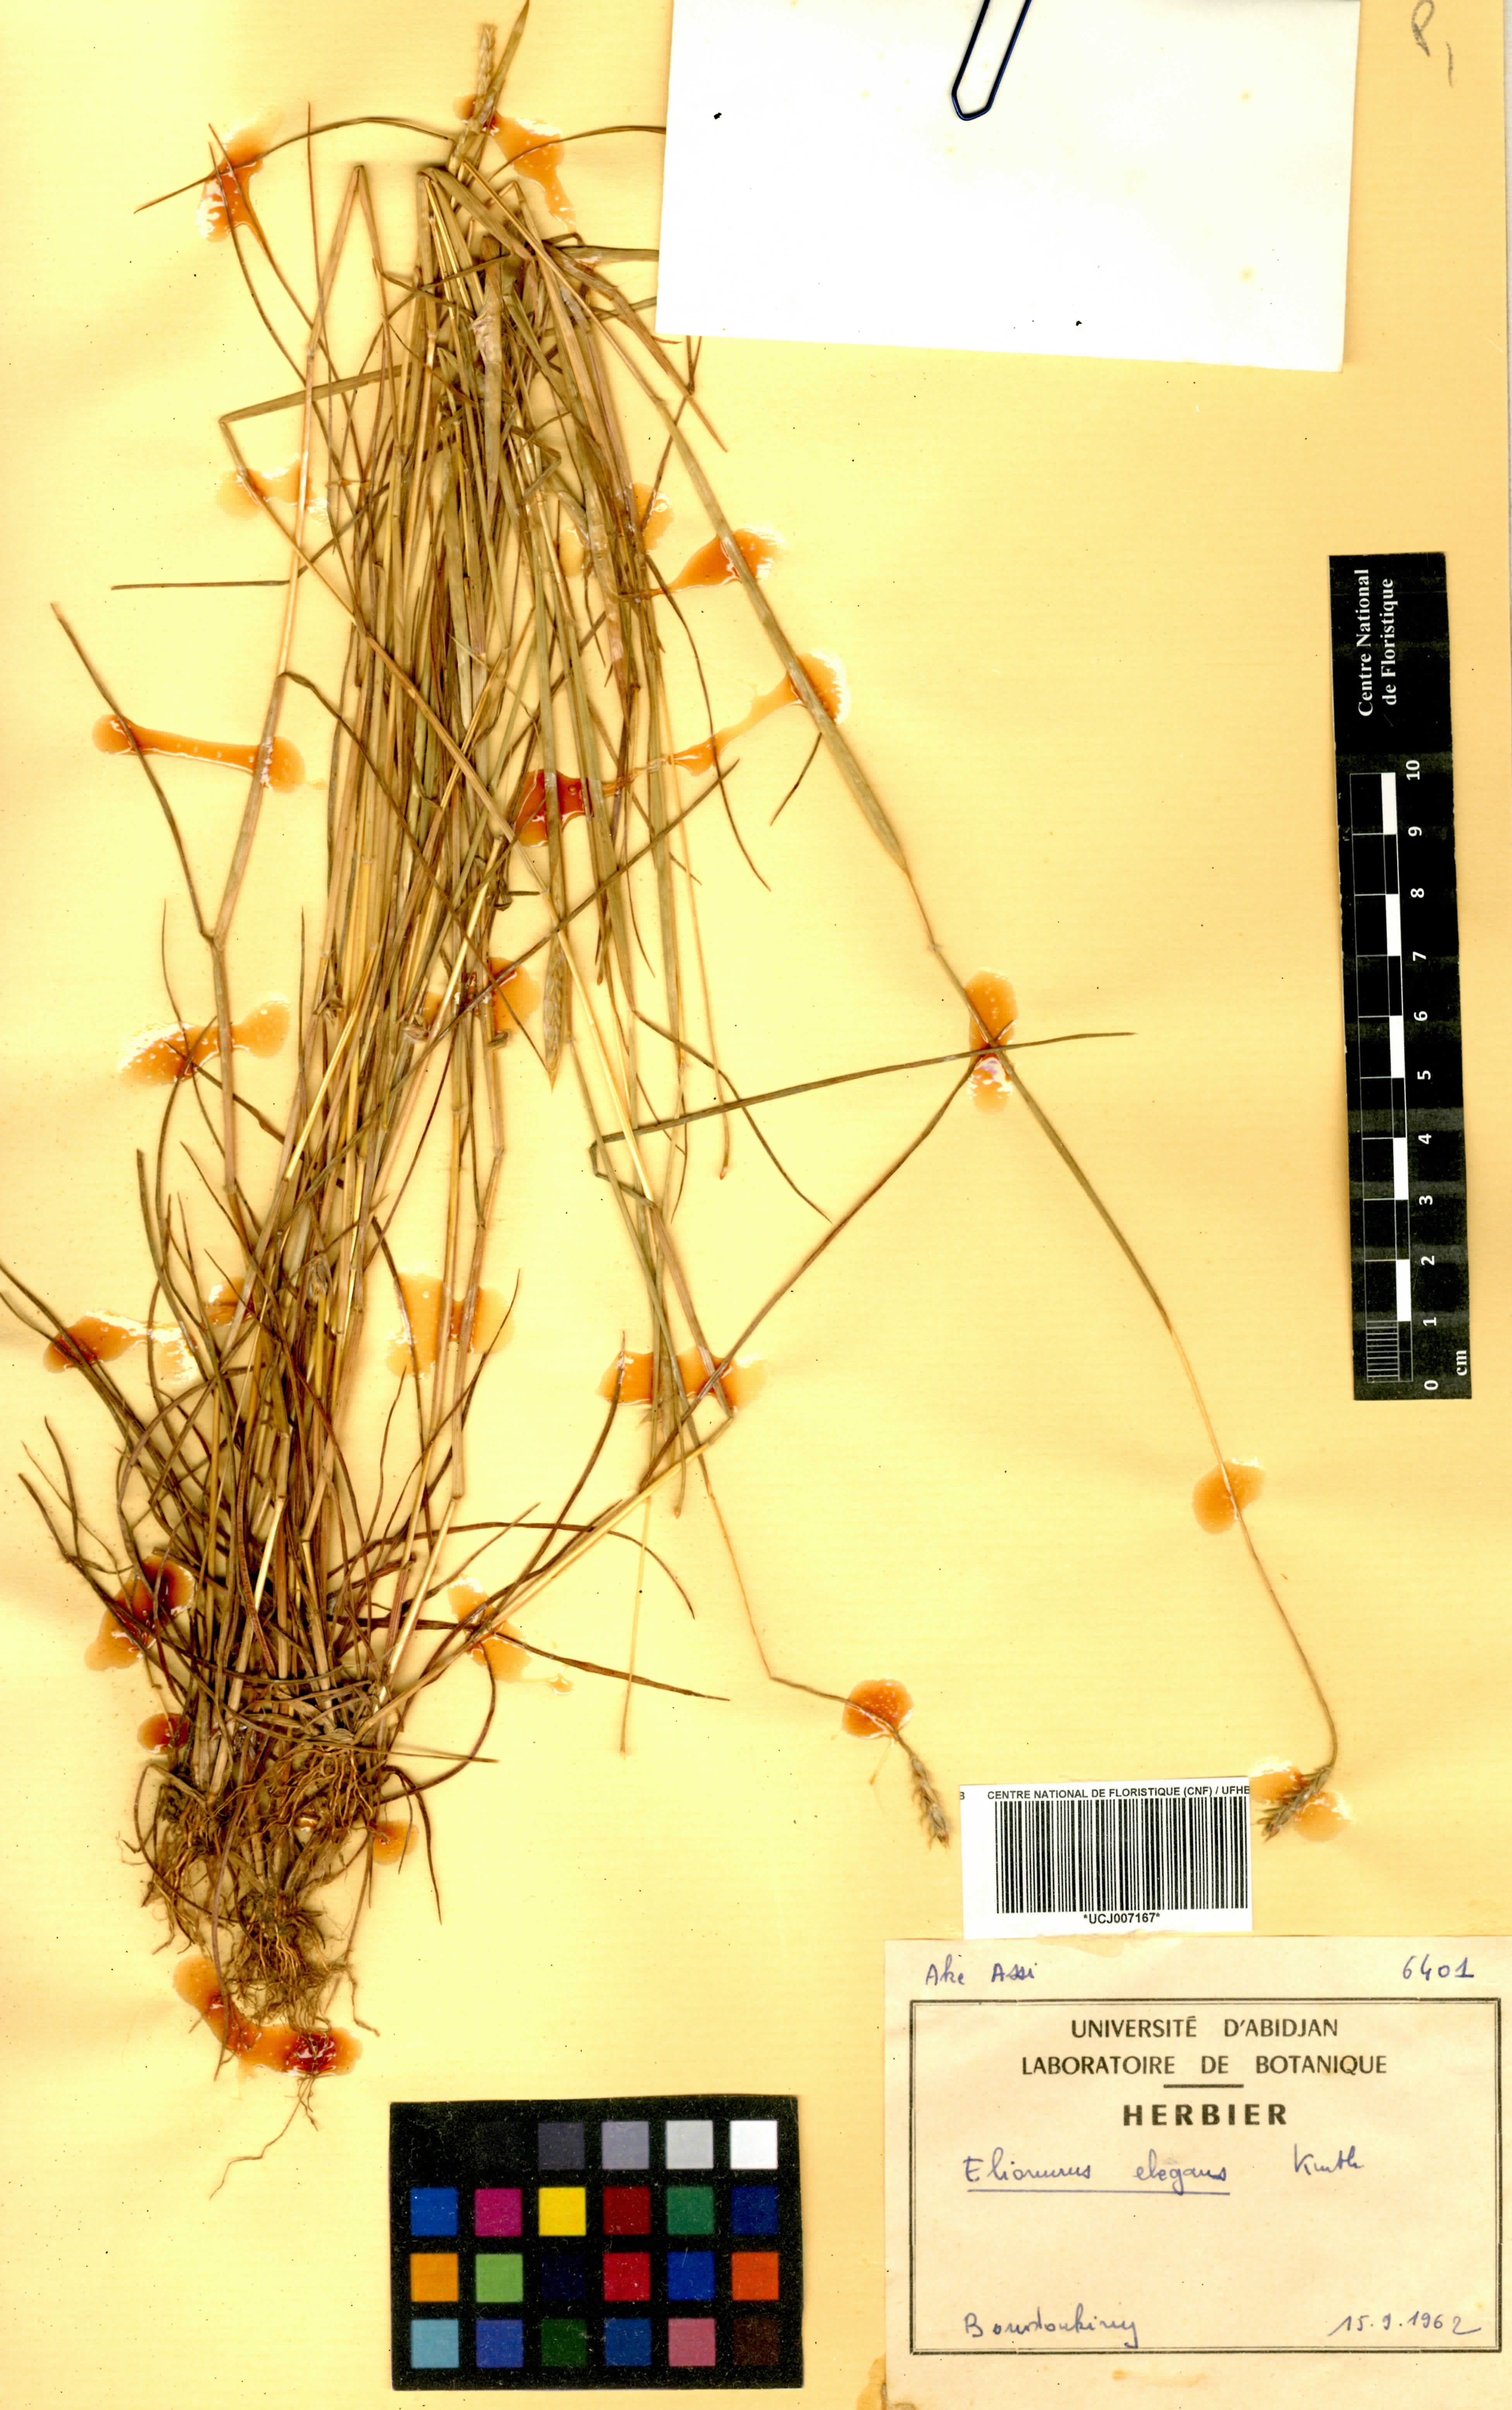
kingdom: Plantae
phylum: Tracheophyta
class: Liliopsida
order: Poales
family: Poaceae
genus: Elionurus
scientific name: Elionurus elegans
